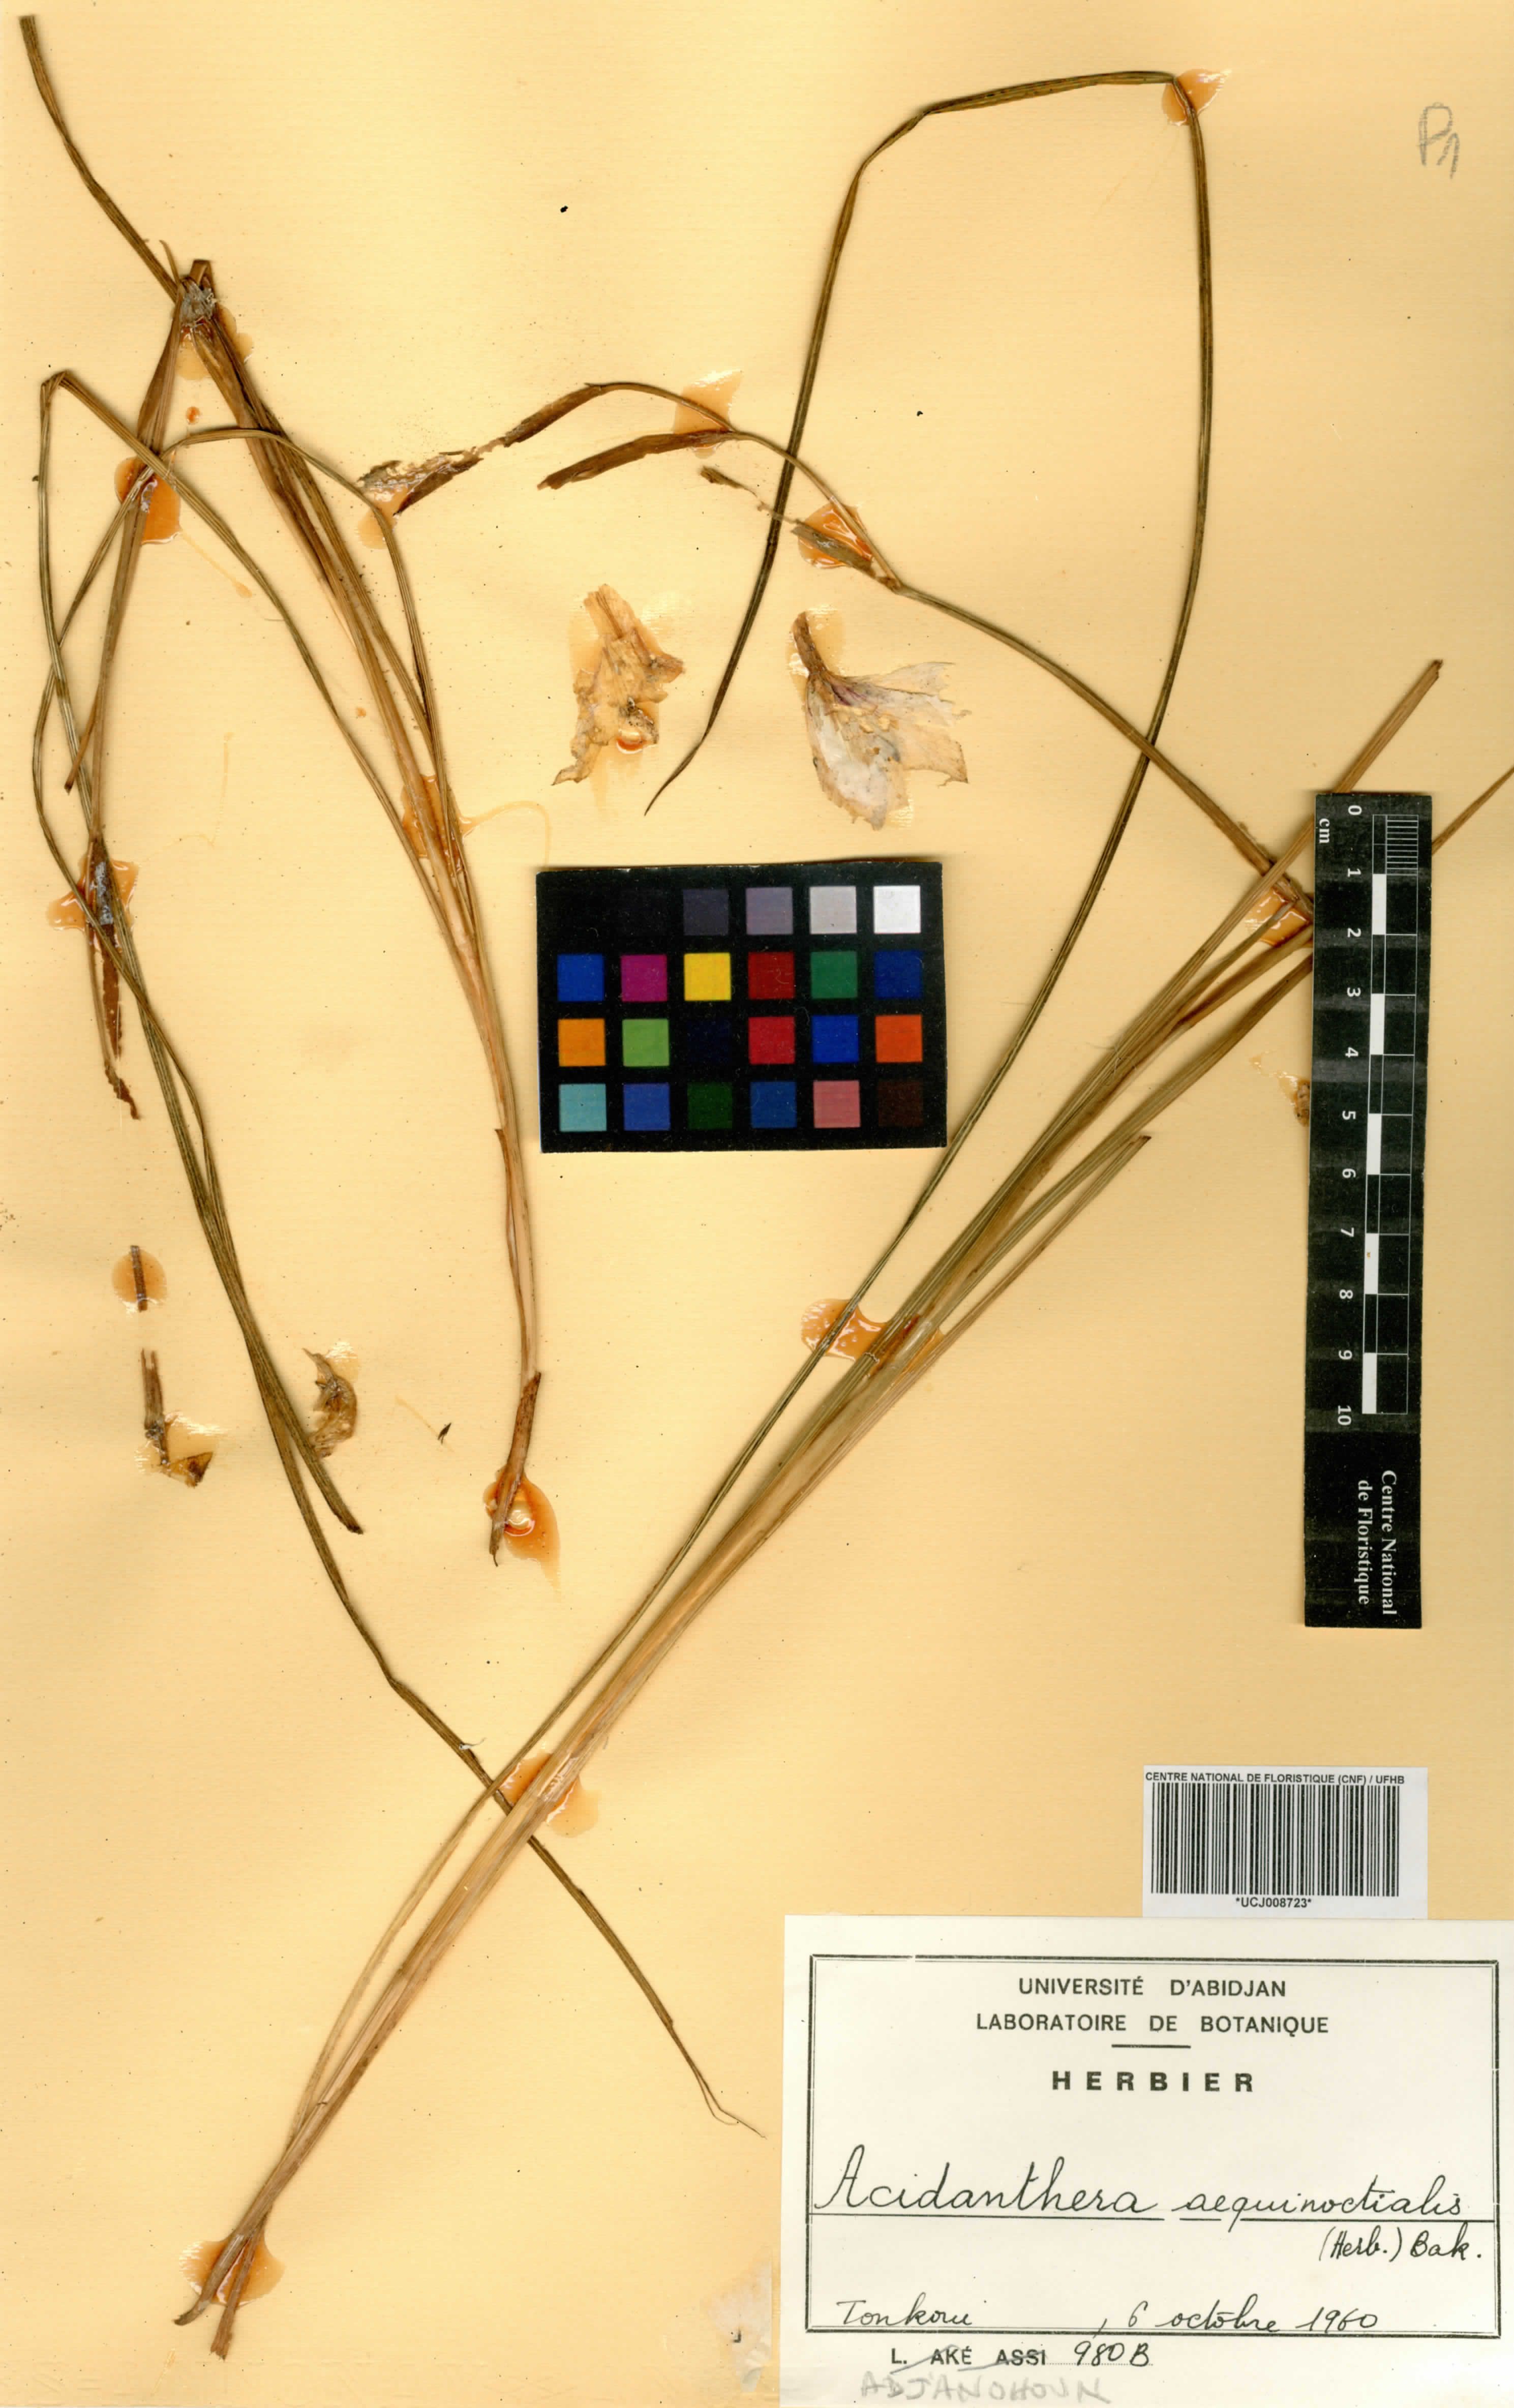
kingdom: Plantae
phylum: Tracheophyta
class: Liliopsida
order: Asparagales
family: Iridaceae
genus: Gladiolus
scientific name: Gladiolus aequinoctialis
